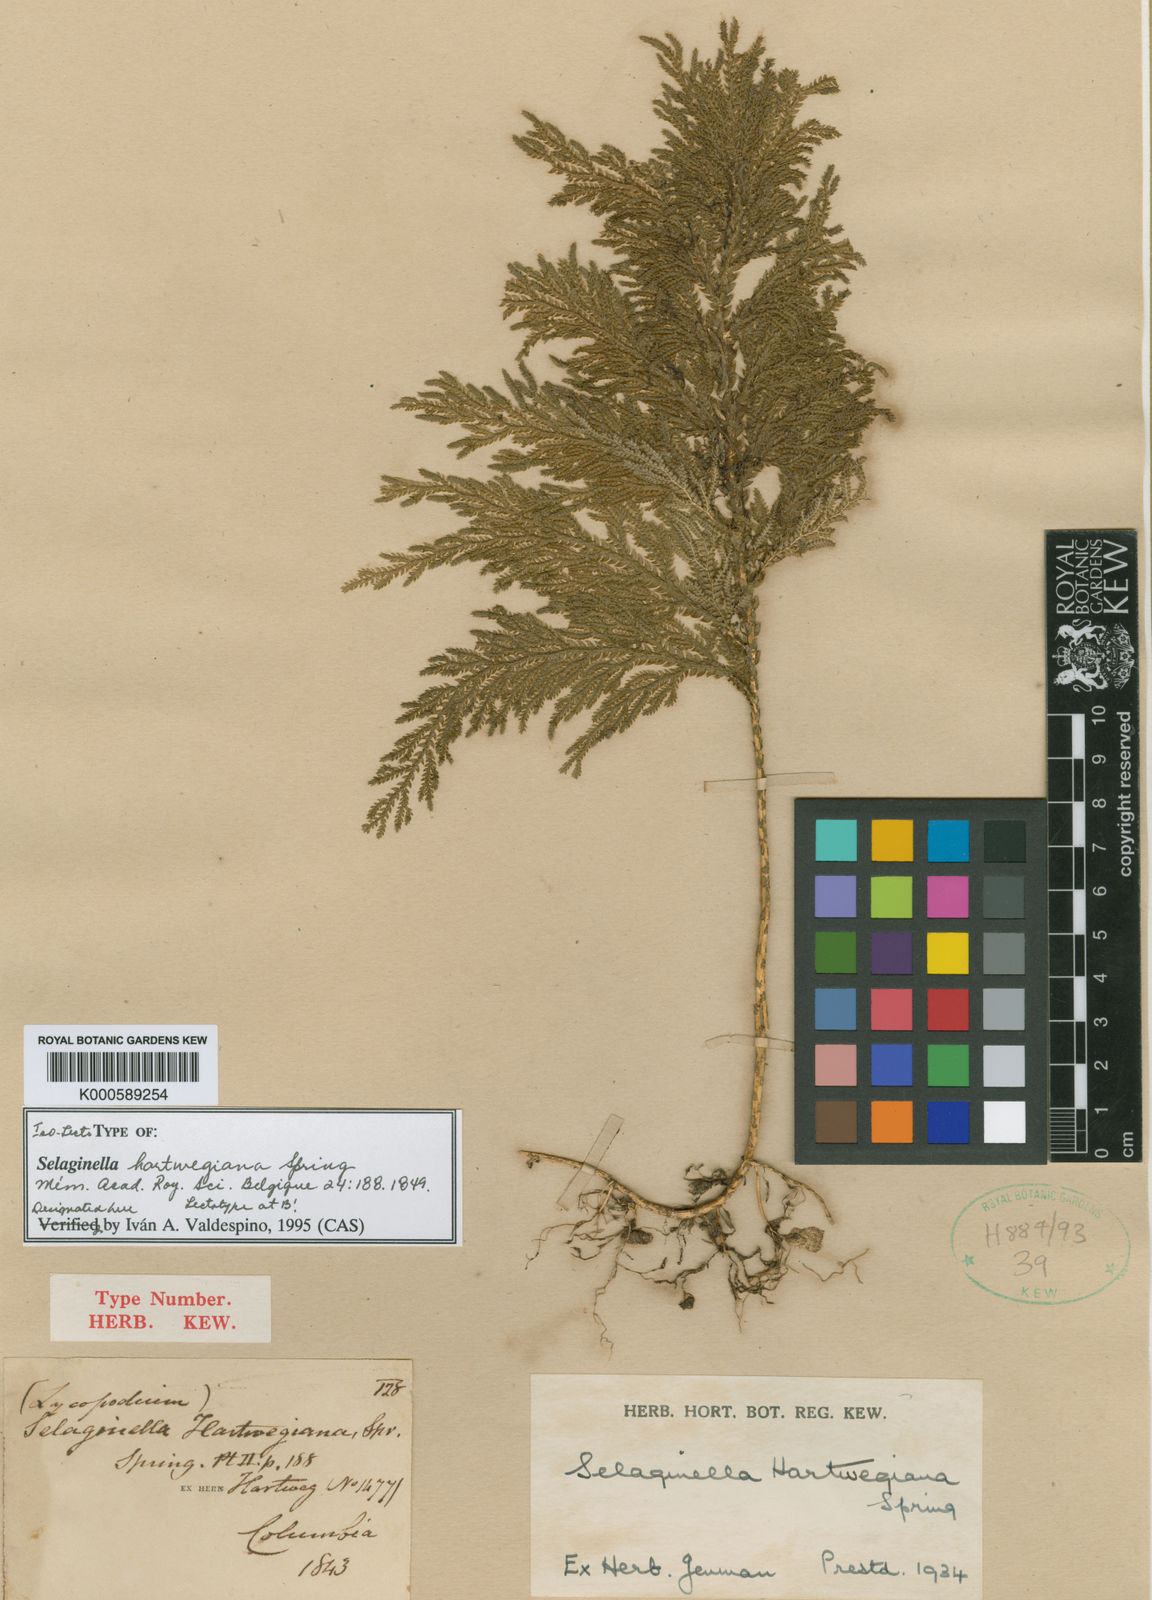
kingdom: Plantae
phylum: Tracheophyta
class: Lycopodiopsida
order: Selaginellales
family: Selaginellaceae
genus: Selaginella
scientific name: Selaginella hartwegiana
